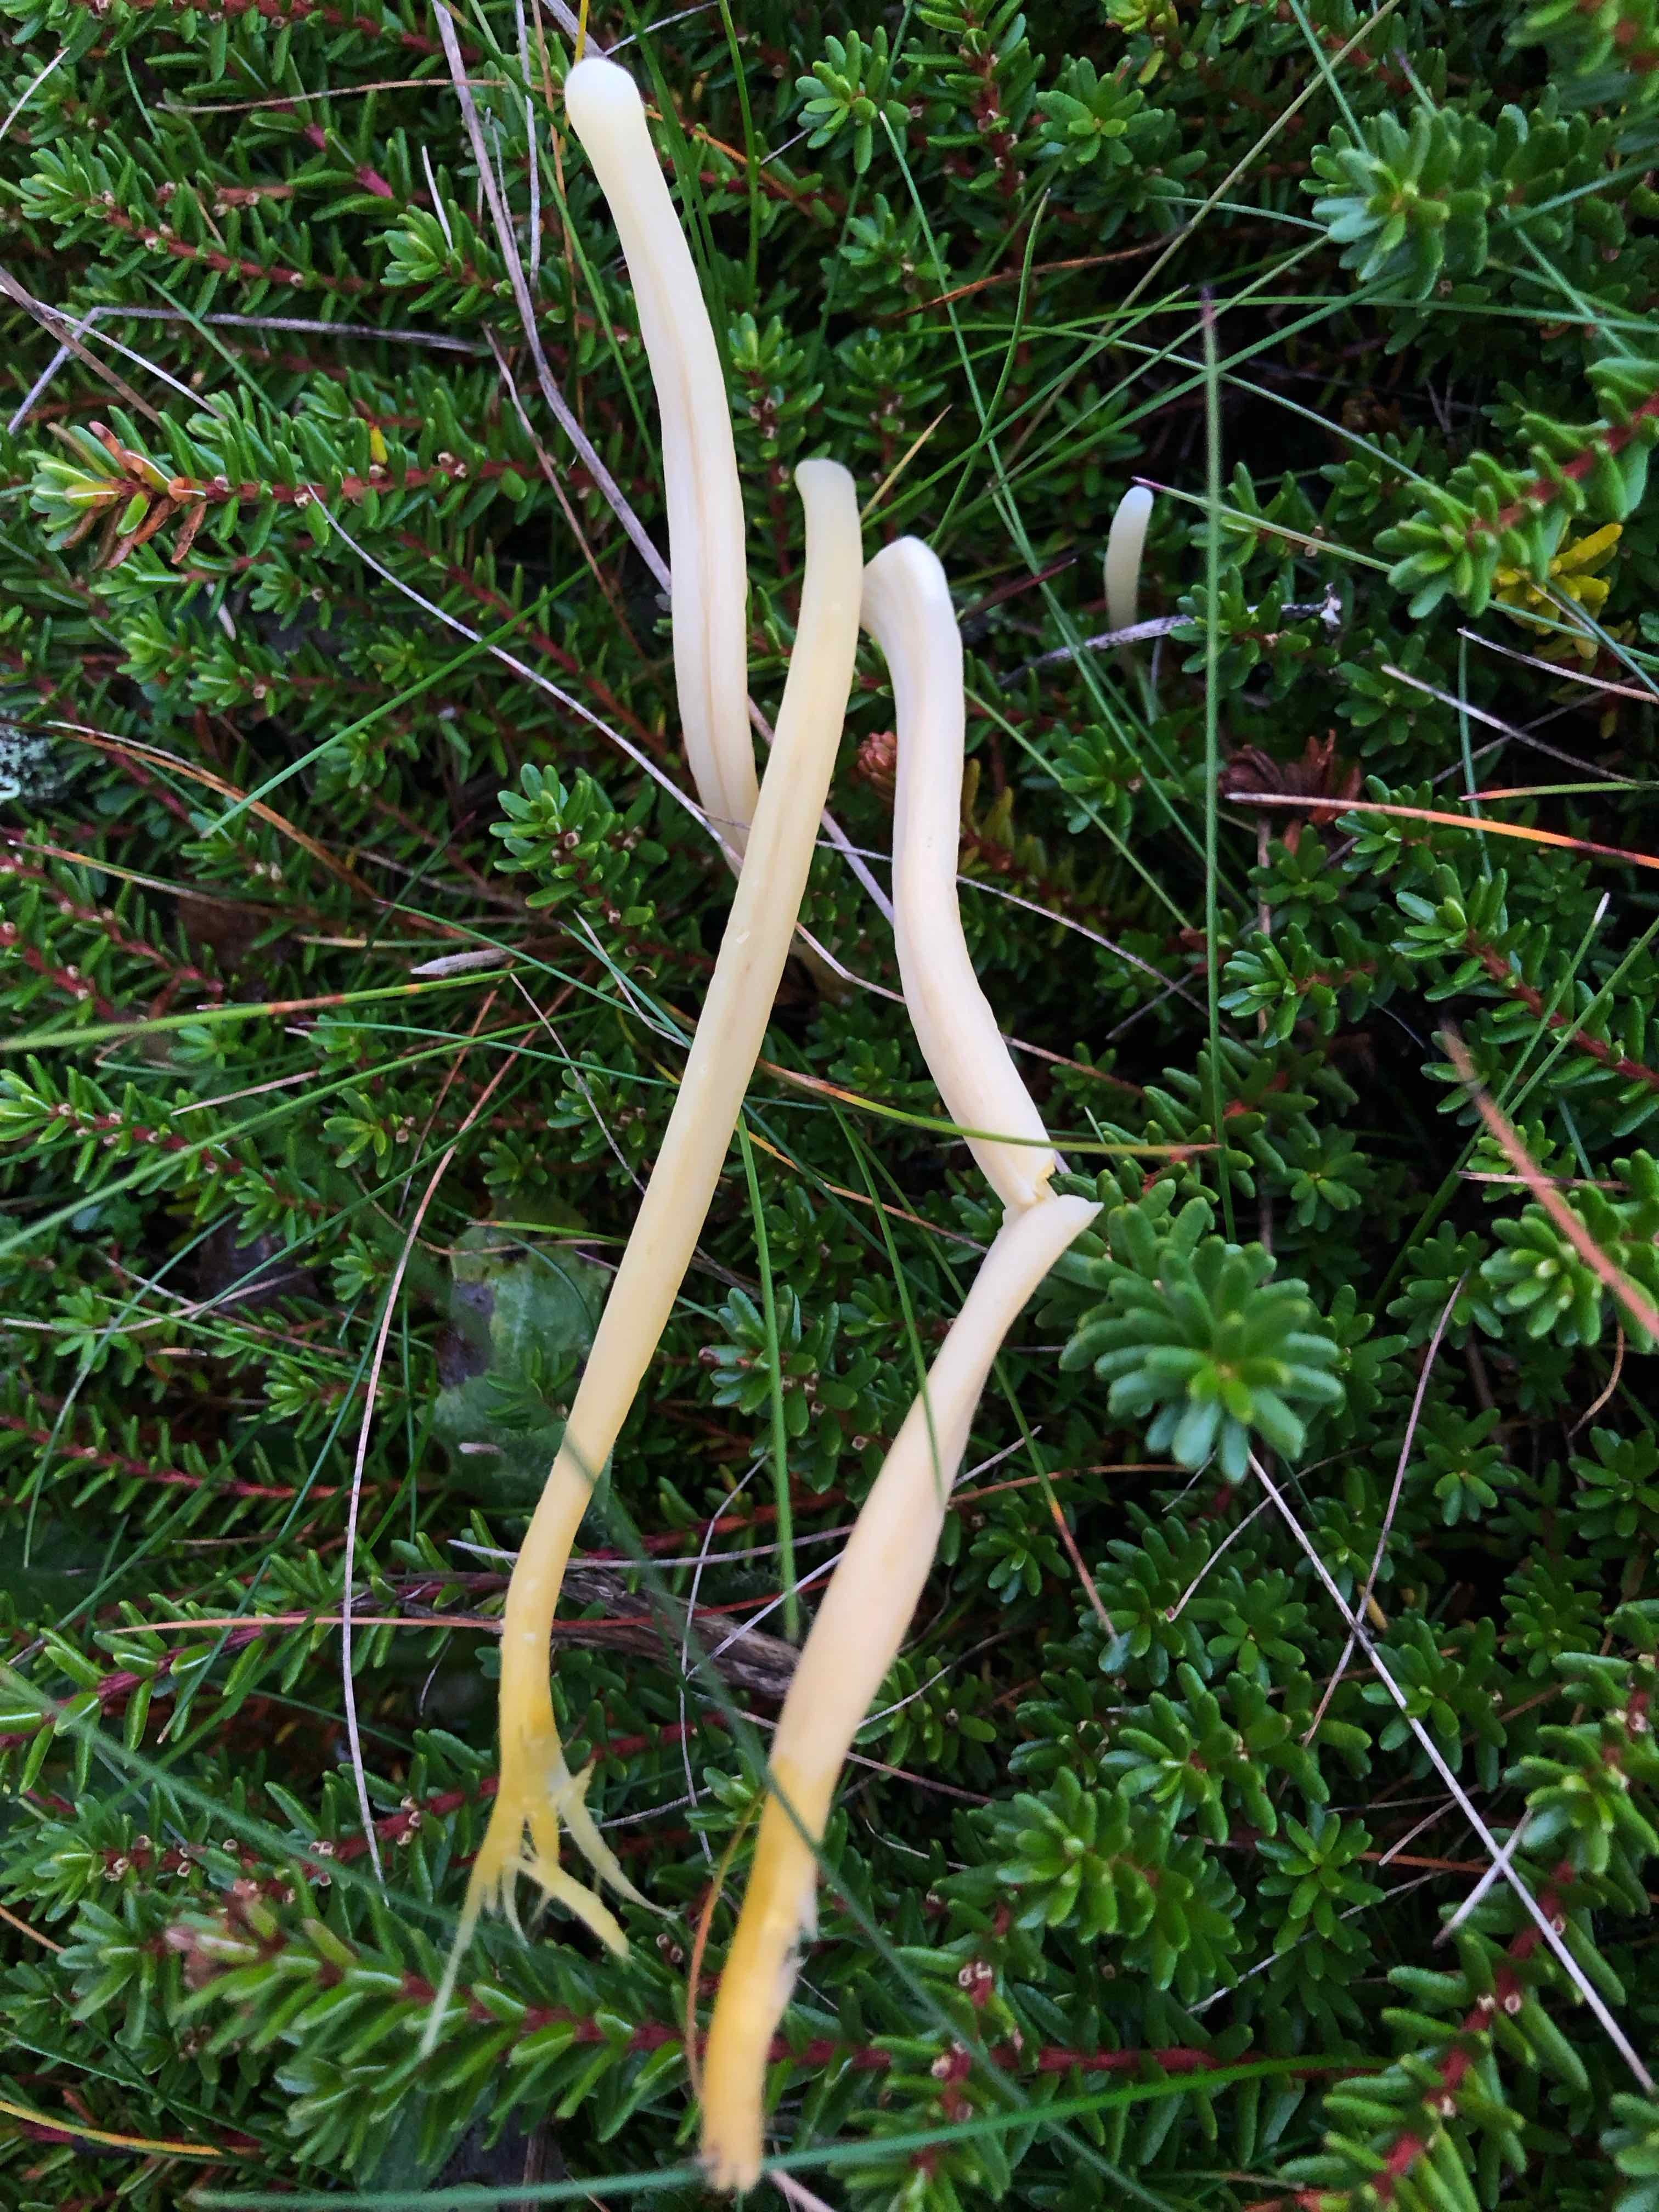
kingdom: Fungi
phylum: Basidiomycota
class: Agaricomycetes
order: Agaricales
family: Clavariaceae
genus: Clavaria
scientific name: Clavaria argillacea
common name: lerfarvet køllesvamp
